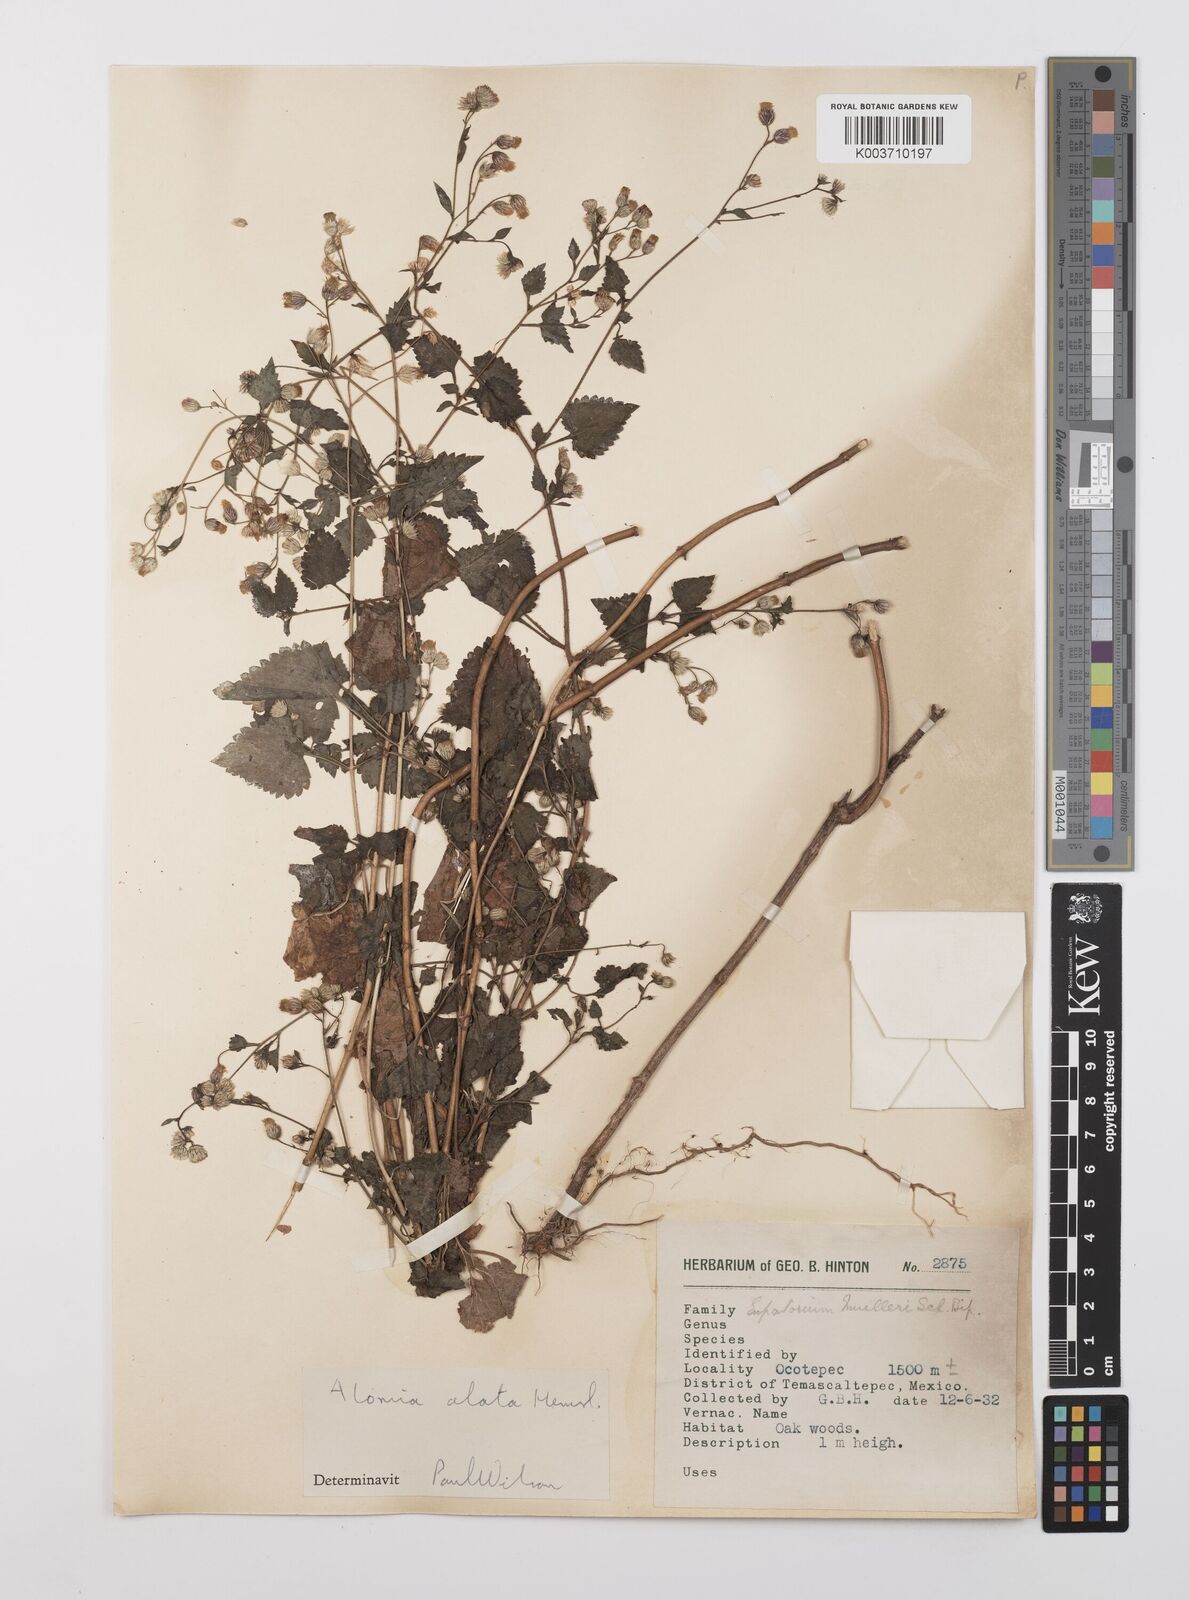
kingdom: Plantae
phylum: Tracheophyta
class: Magnoliopsida
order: Asterales
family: Asteraceae
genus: Alomia
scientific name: Alomia alata
